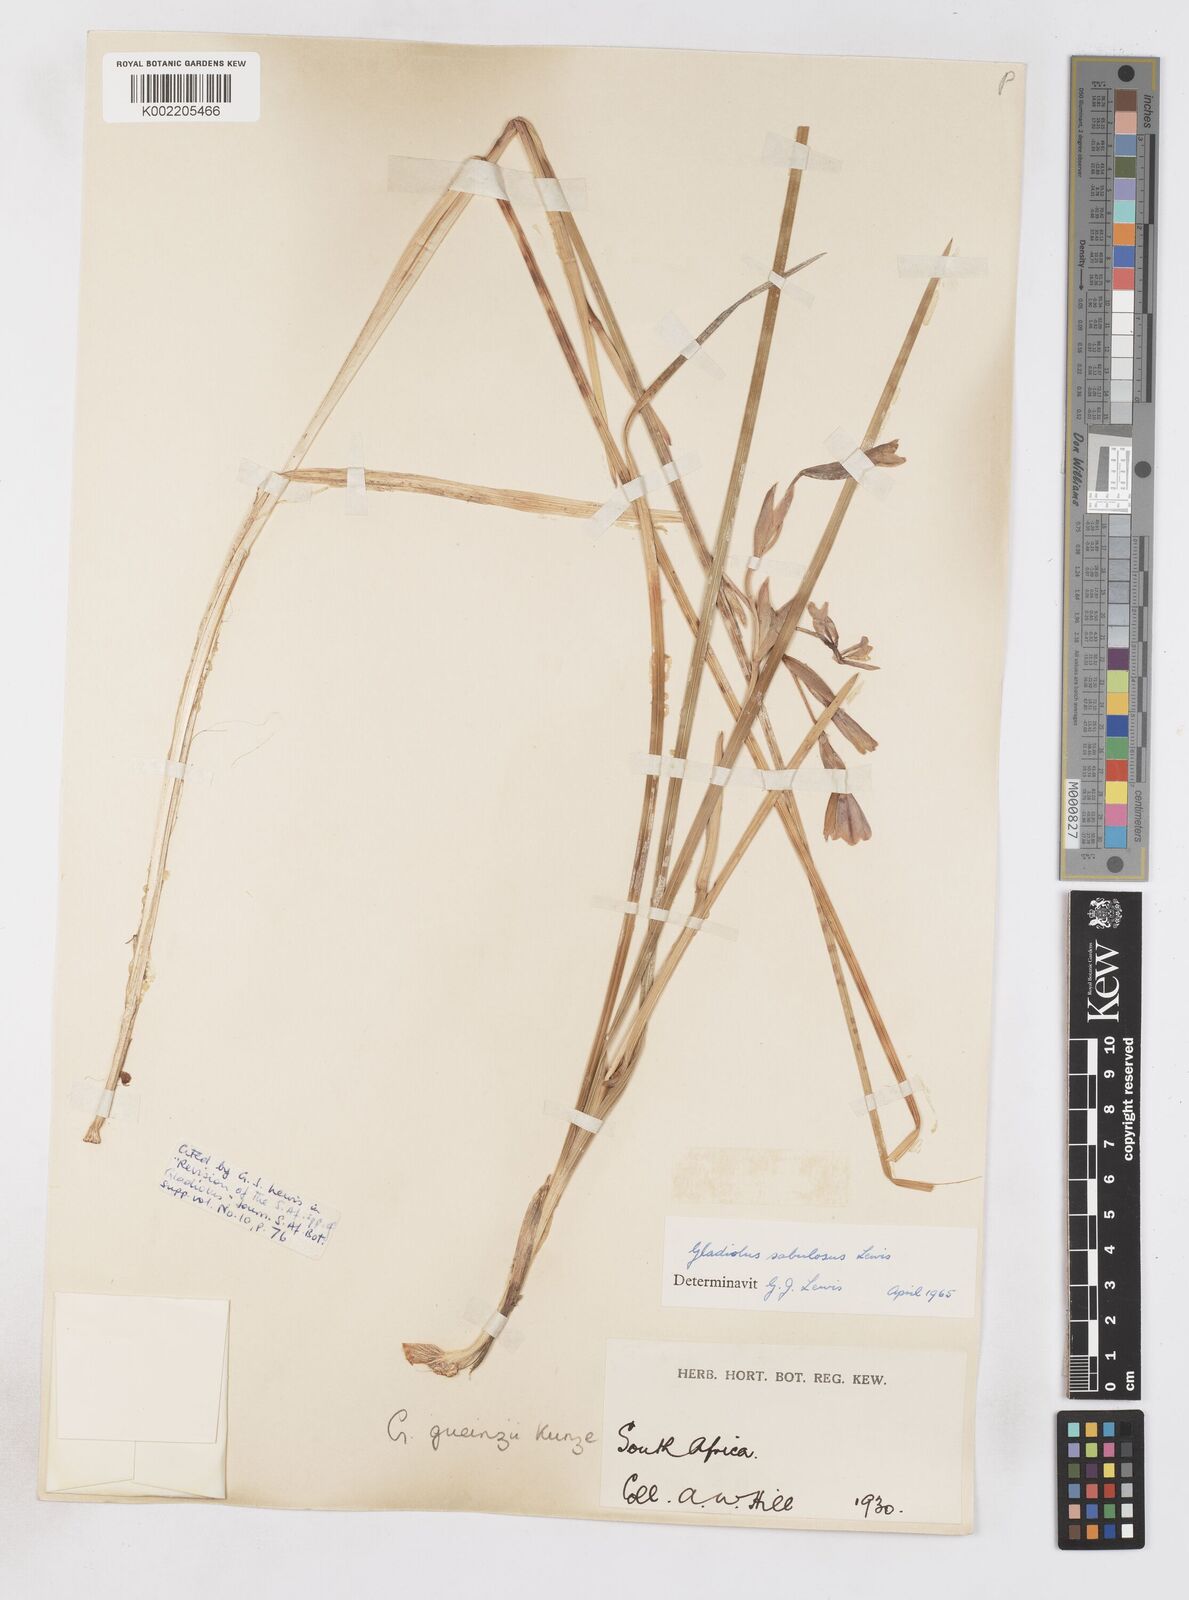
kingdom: Plantae
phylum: Tracheophyta
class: Liliopsida
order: Asparagales
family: Iridaceae
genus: Gladiolus
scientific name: Gladiolus gueinzii
